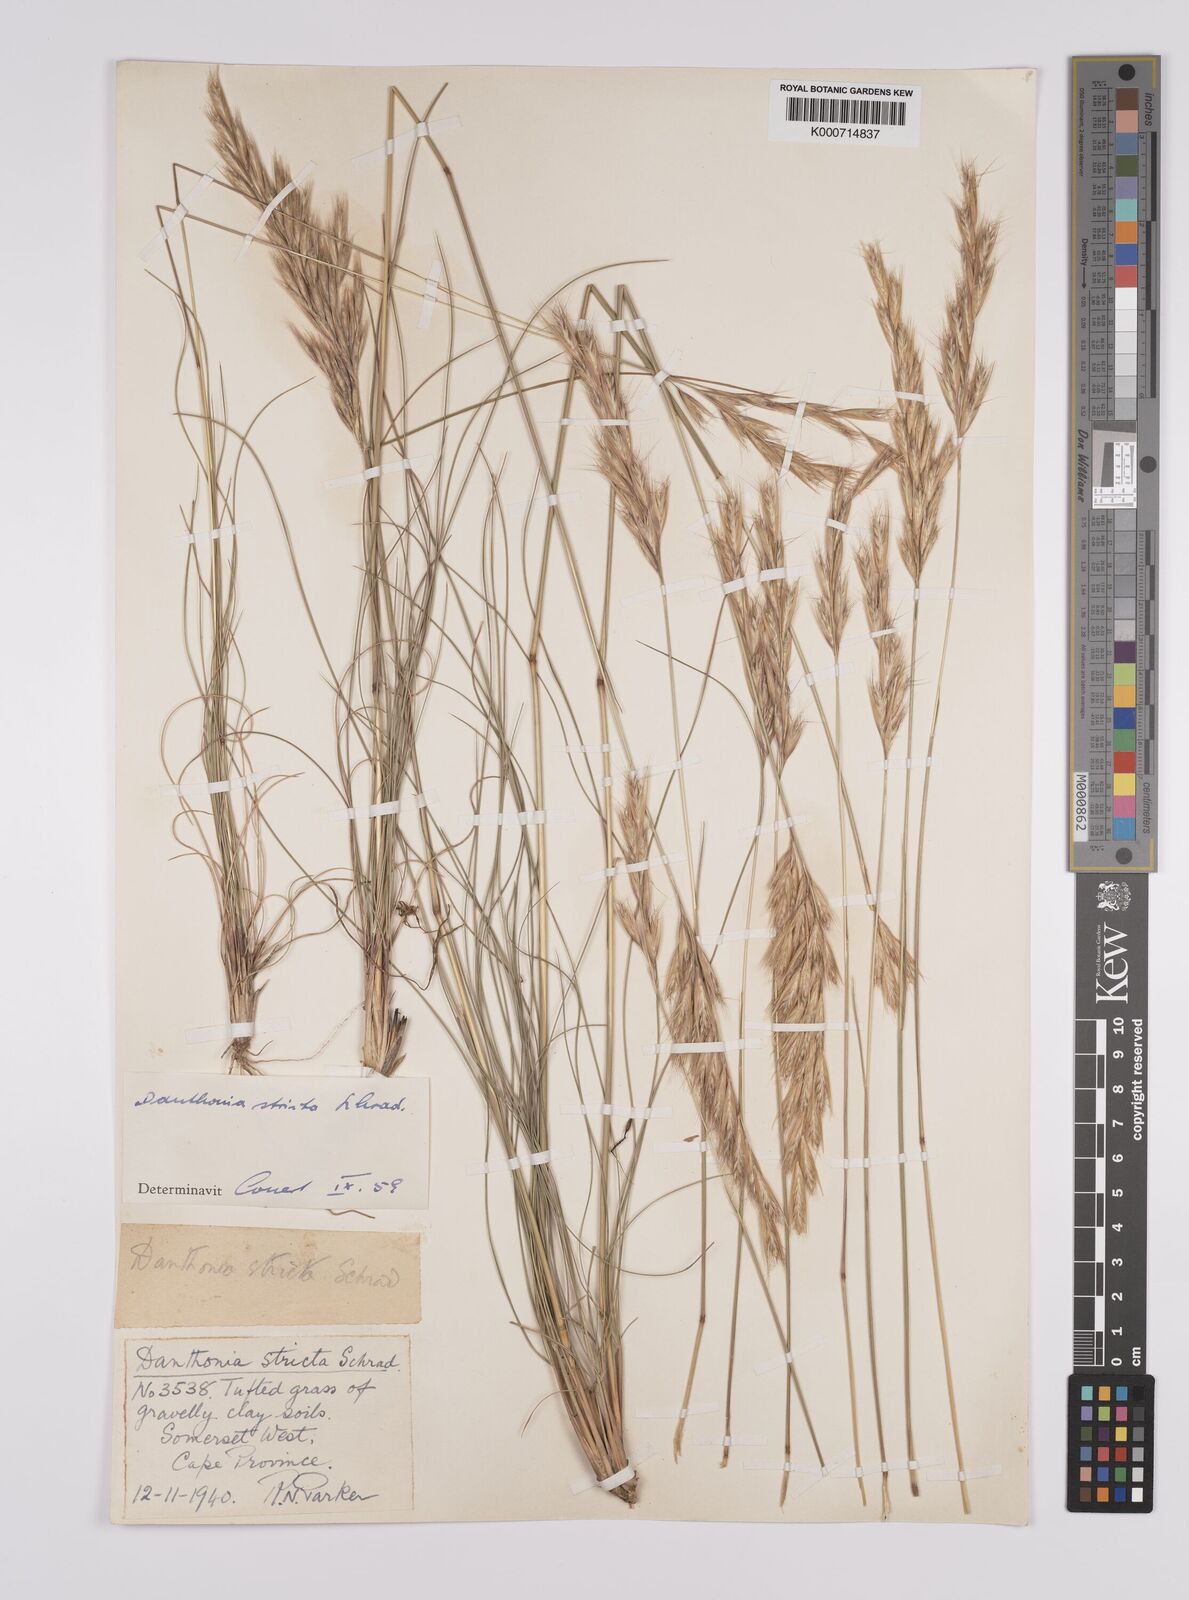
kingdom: Plantae
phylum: Tracheophyta
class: Liliopsida
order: Poales
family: Poaceae
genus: Rytidosperma
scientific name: Rytidosperma
